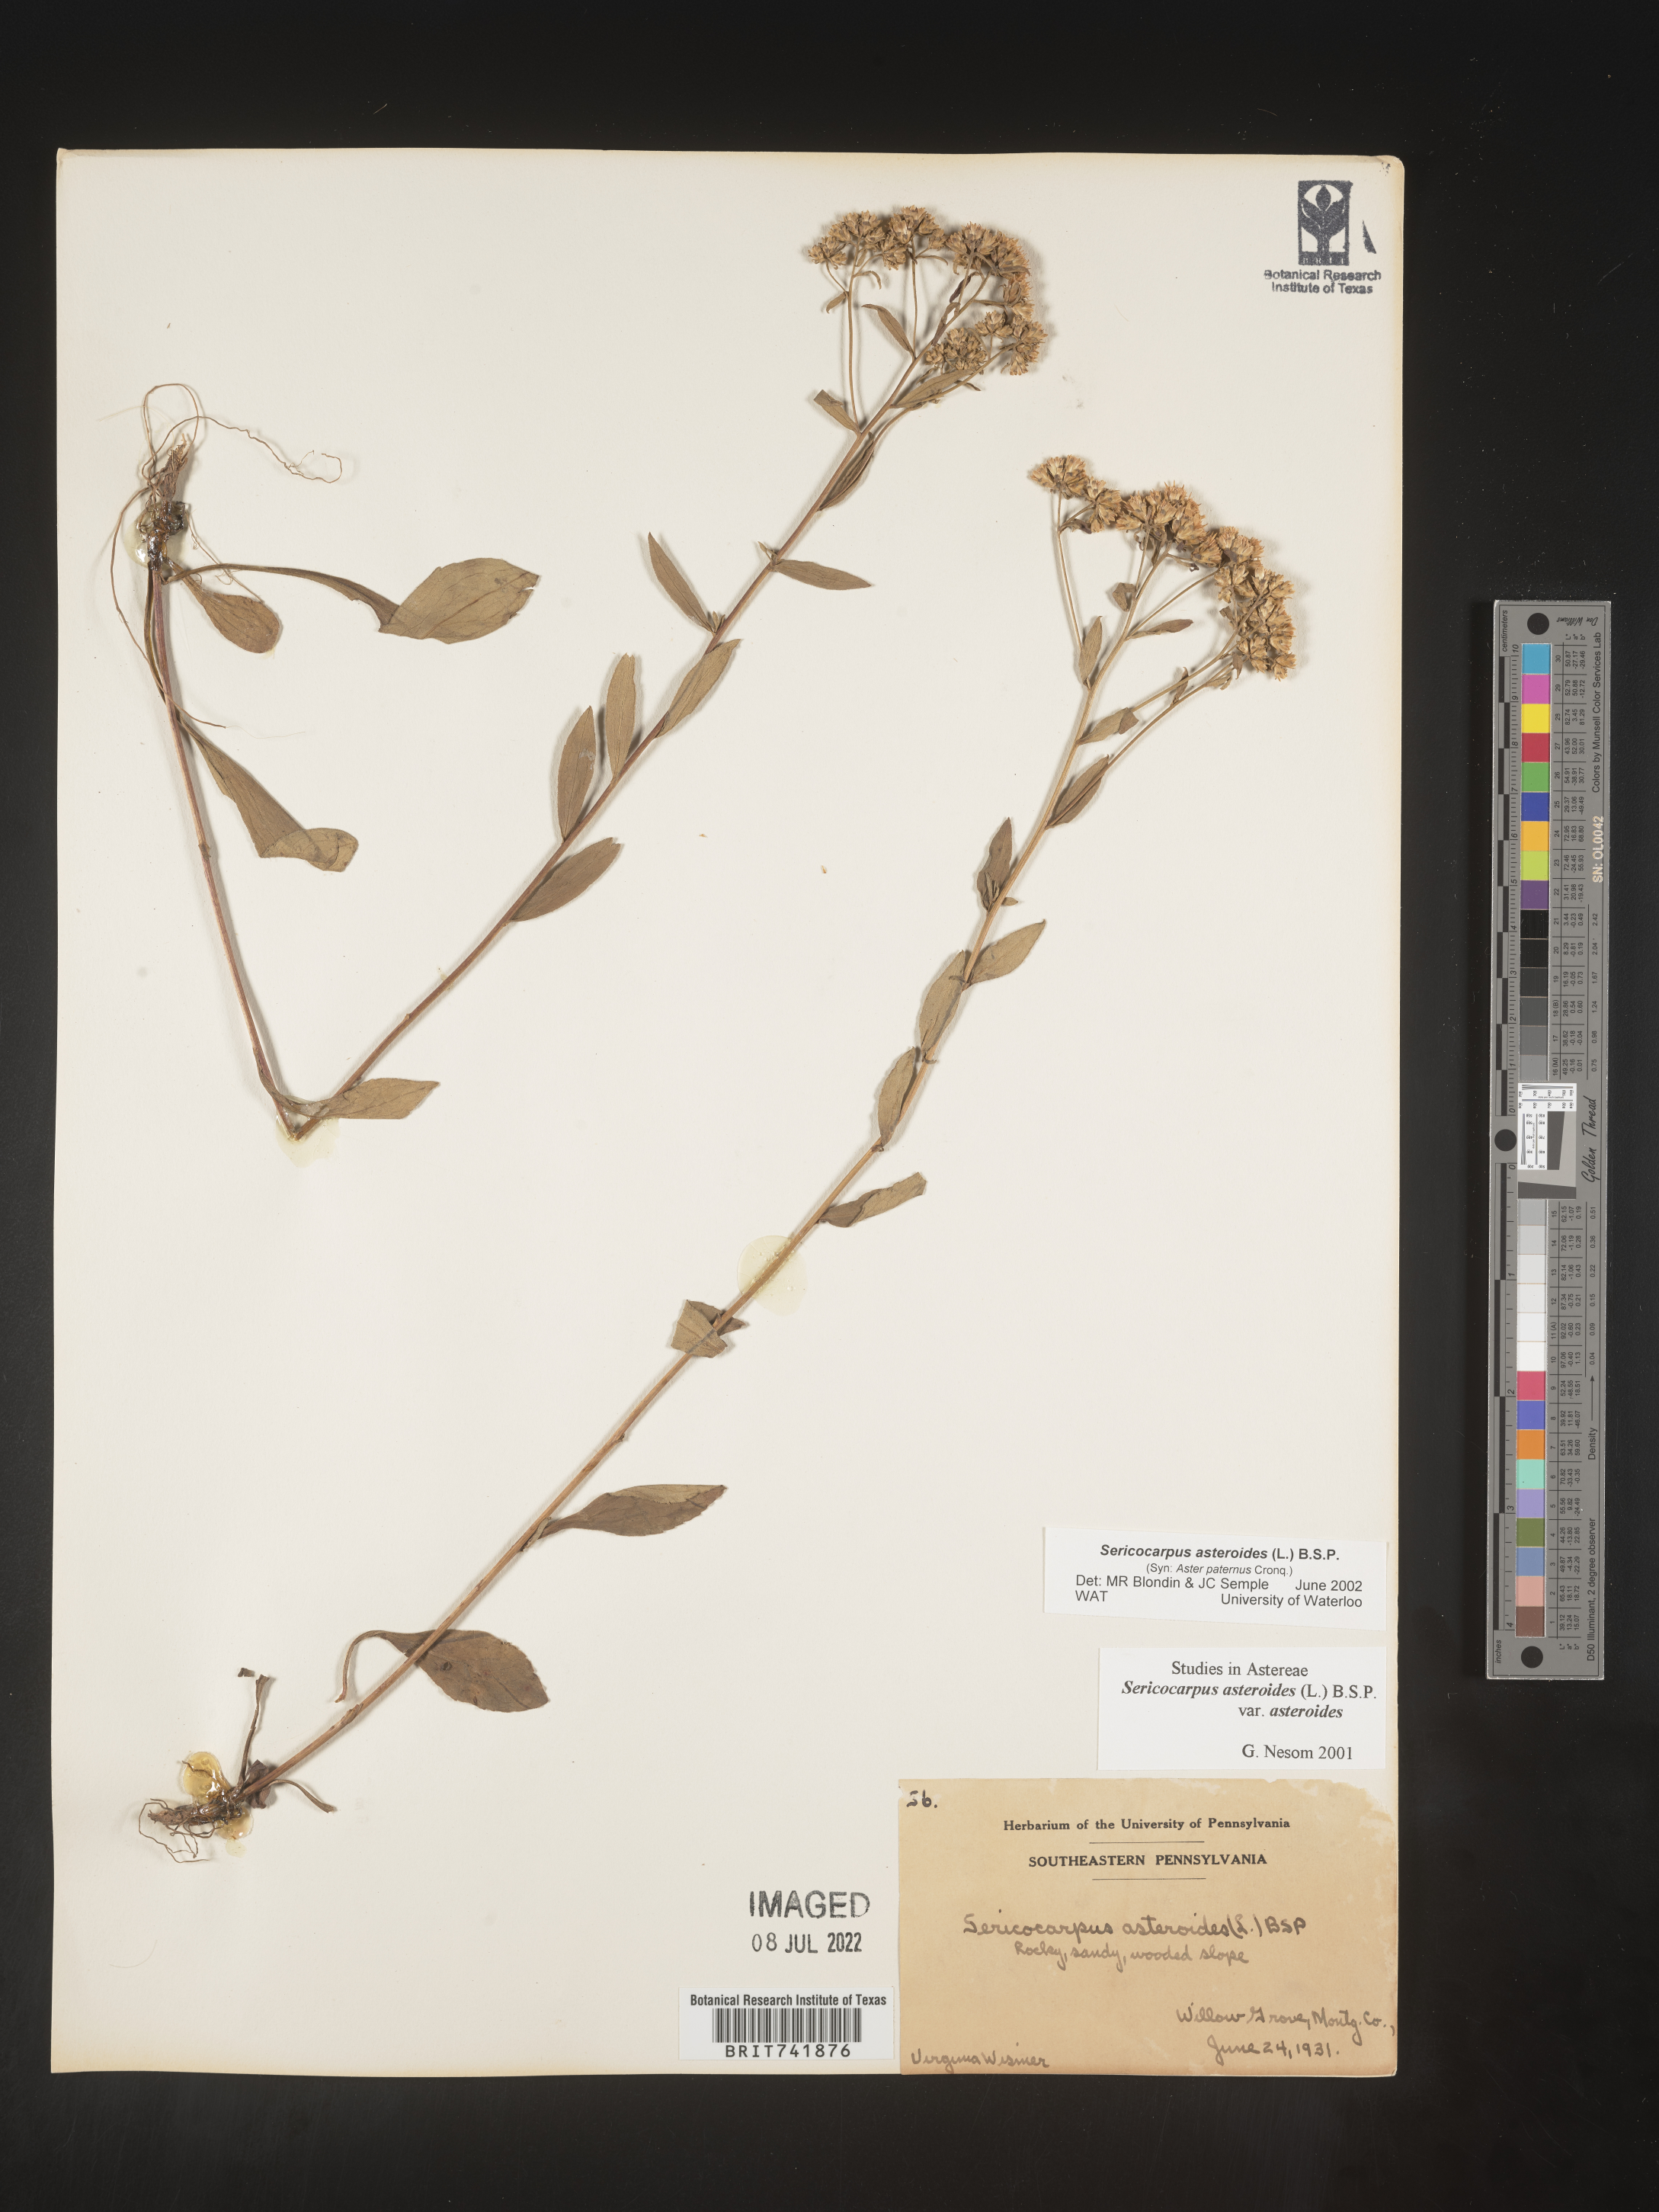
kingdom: Plantae
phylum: Tracheophyta
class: Magnoliopsida
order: Asterales
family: Asteraceae
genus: Sericocarpus
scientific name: Sericocarpus asteroides
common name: Toothed white-top aster
